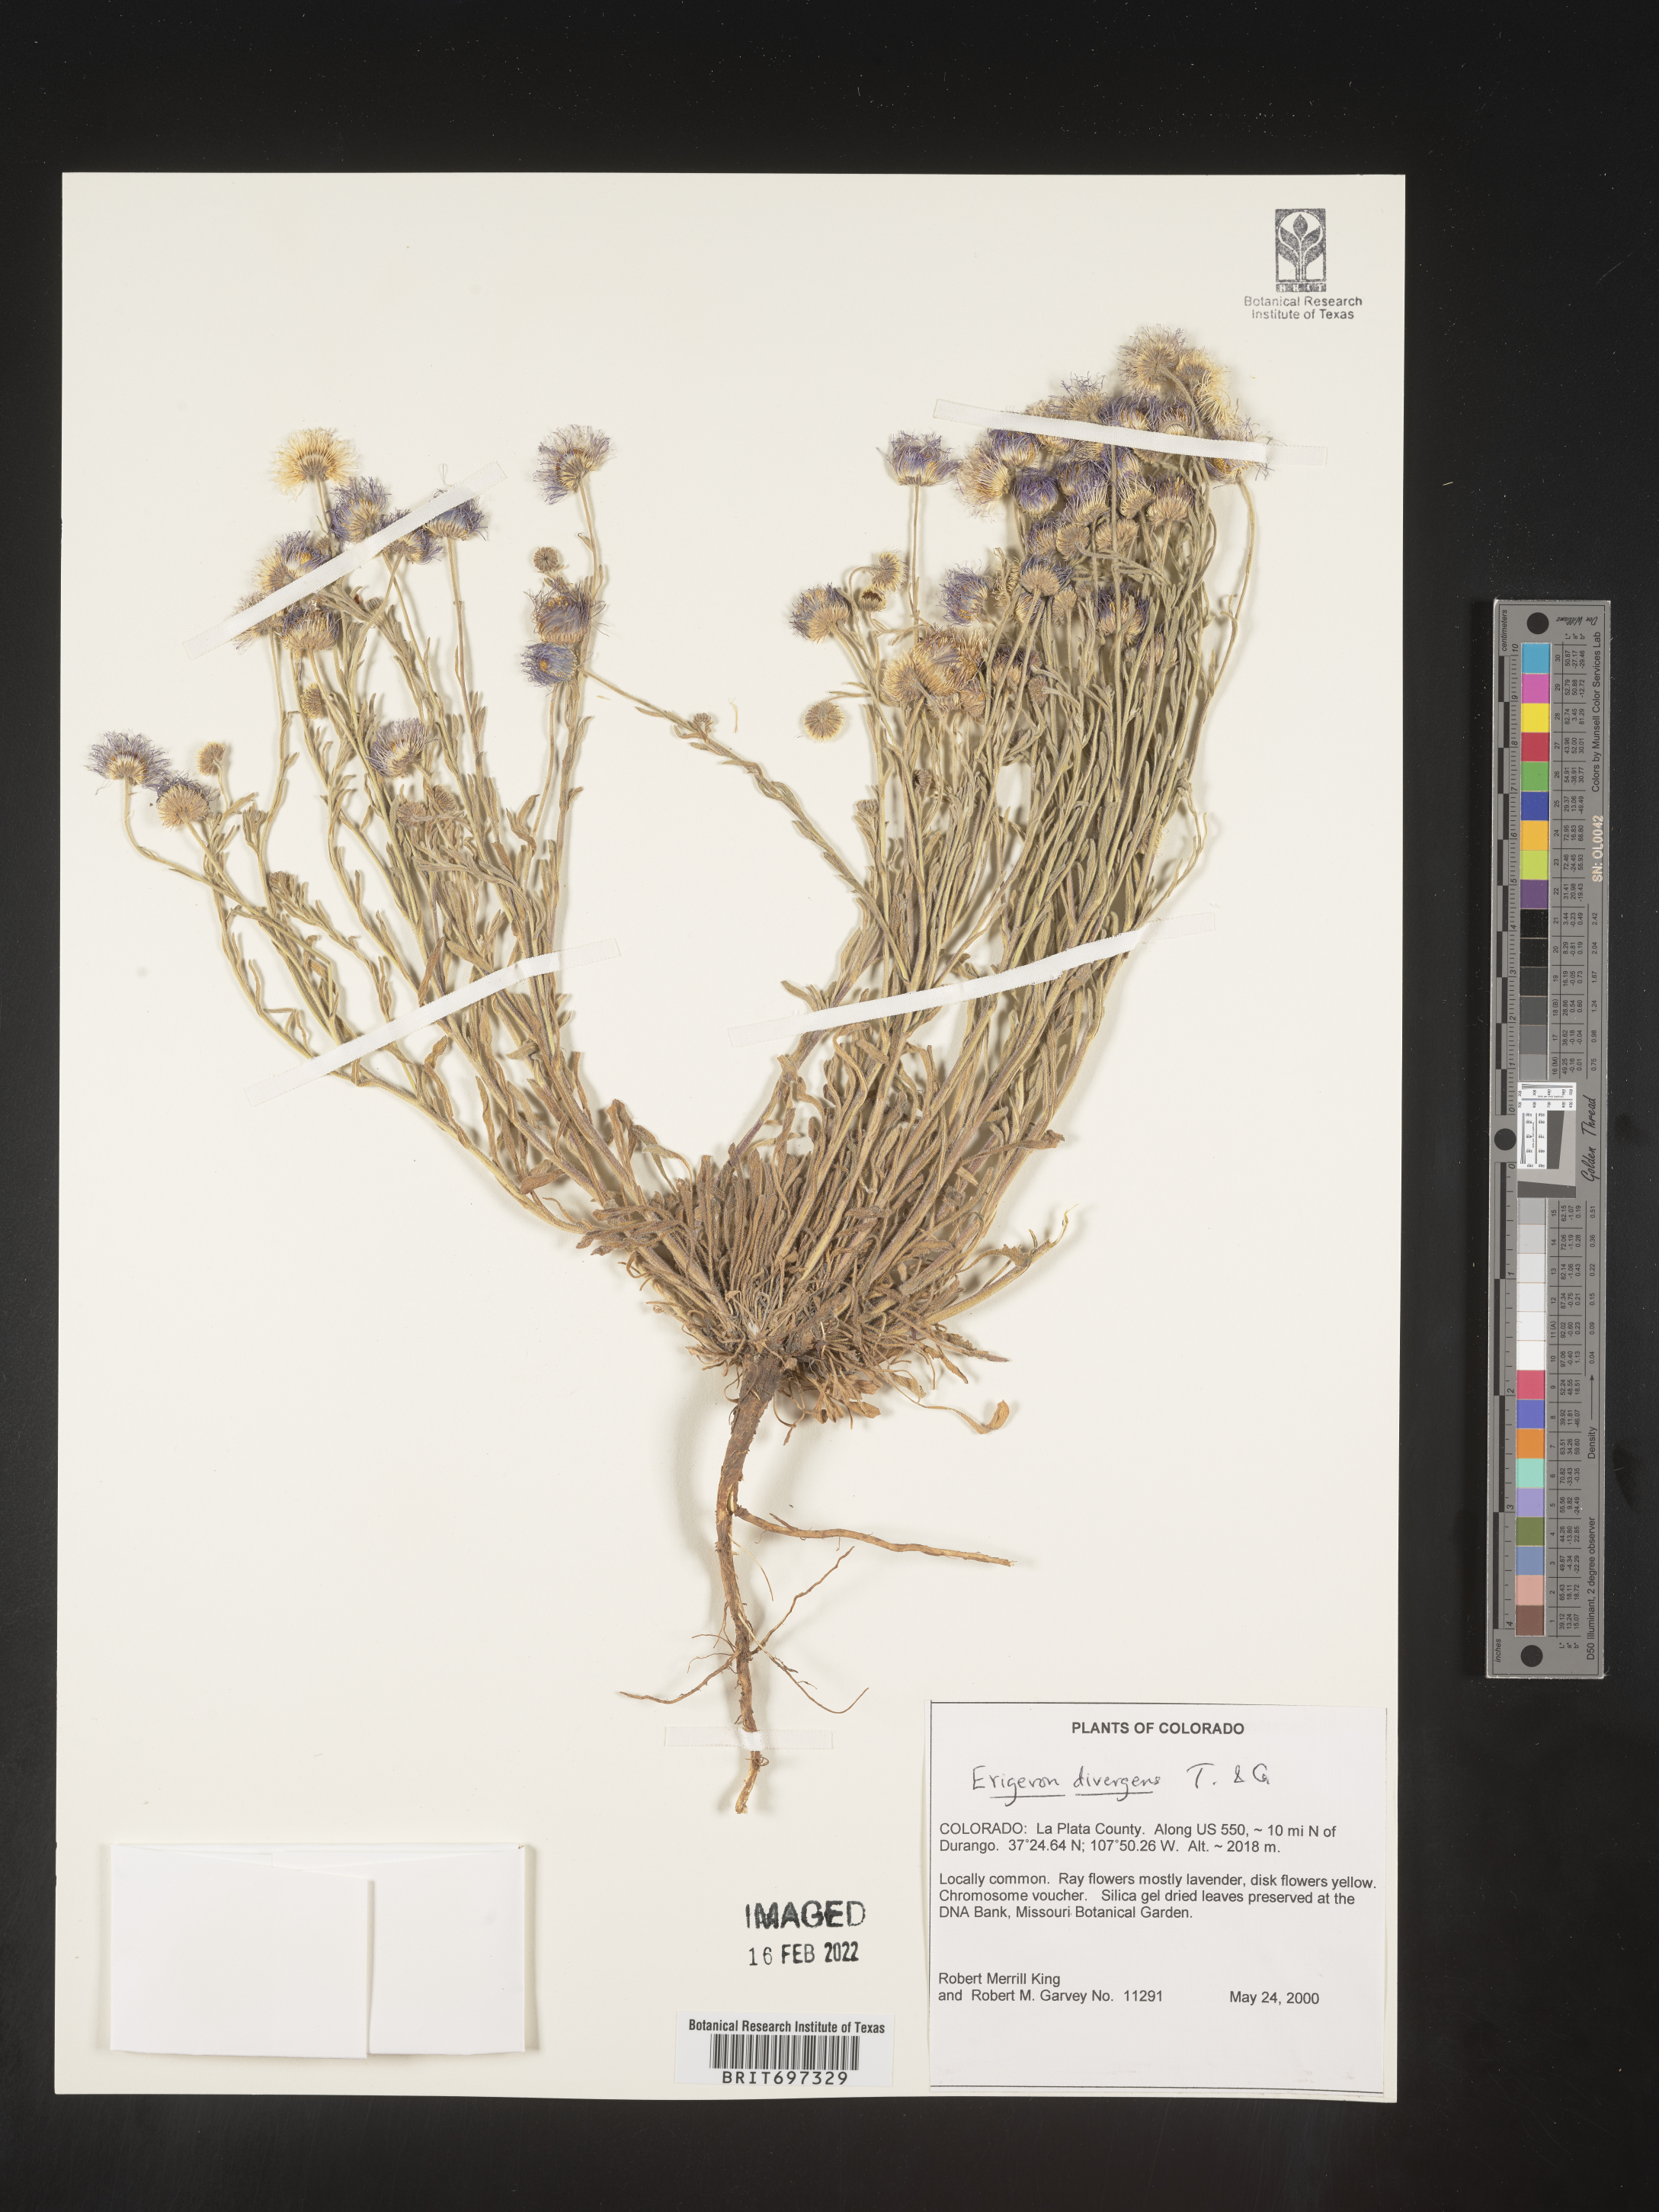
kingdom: Plantae
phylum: Tracheophyta
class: Magnoliopsida
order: Asterales
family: Asteraceae
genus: Erigeron
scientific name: Erigeron divergens
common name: Diffuse fleabane
